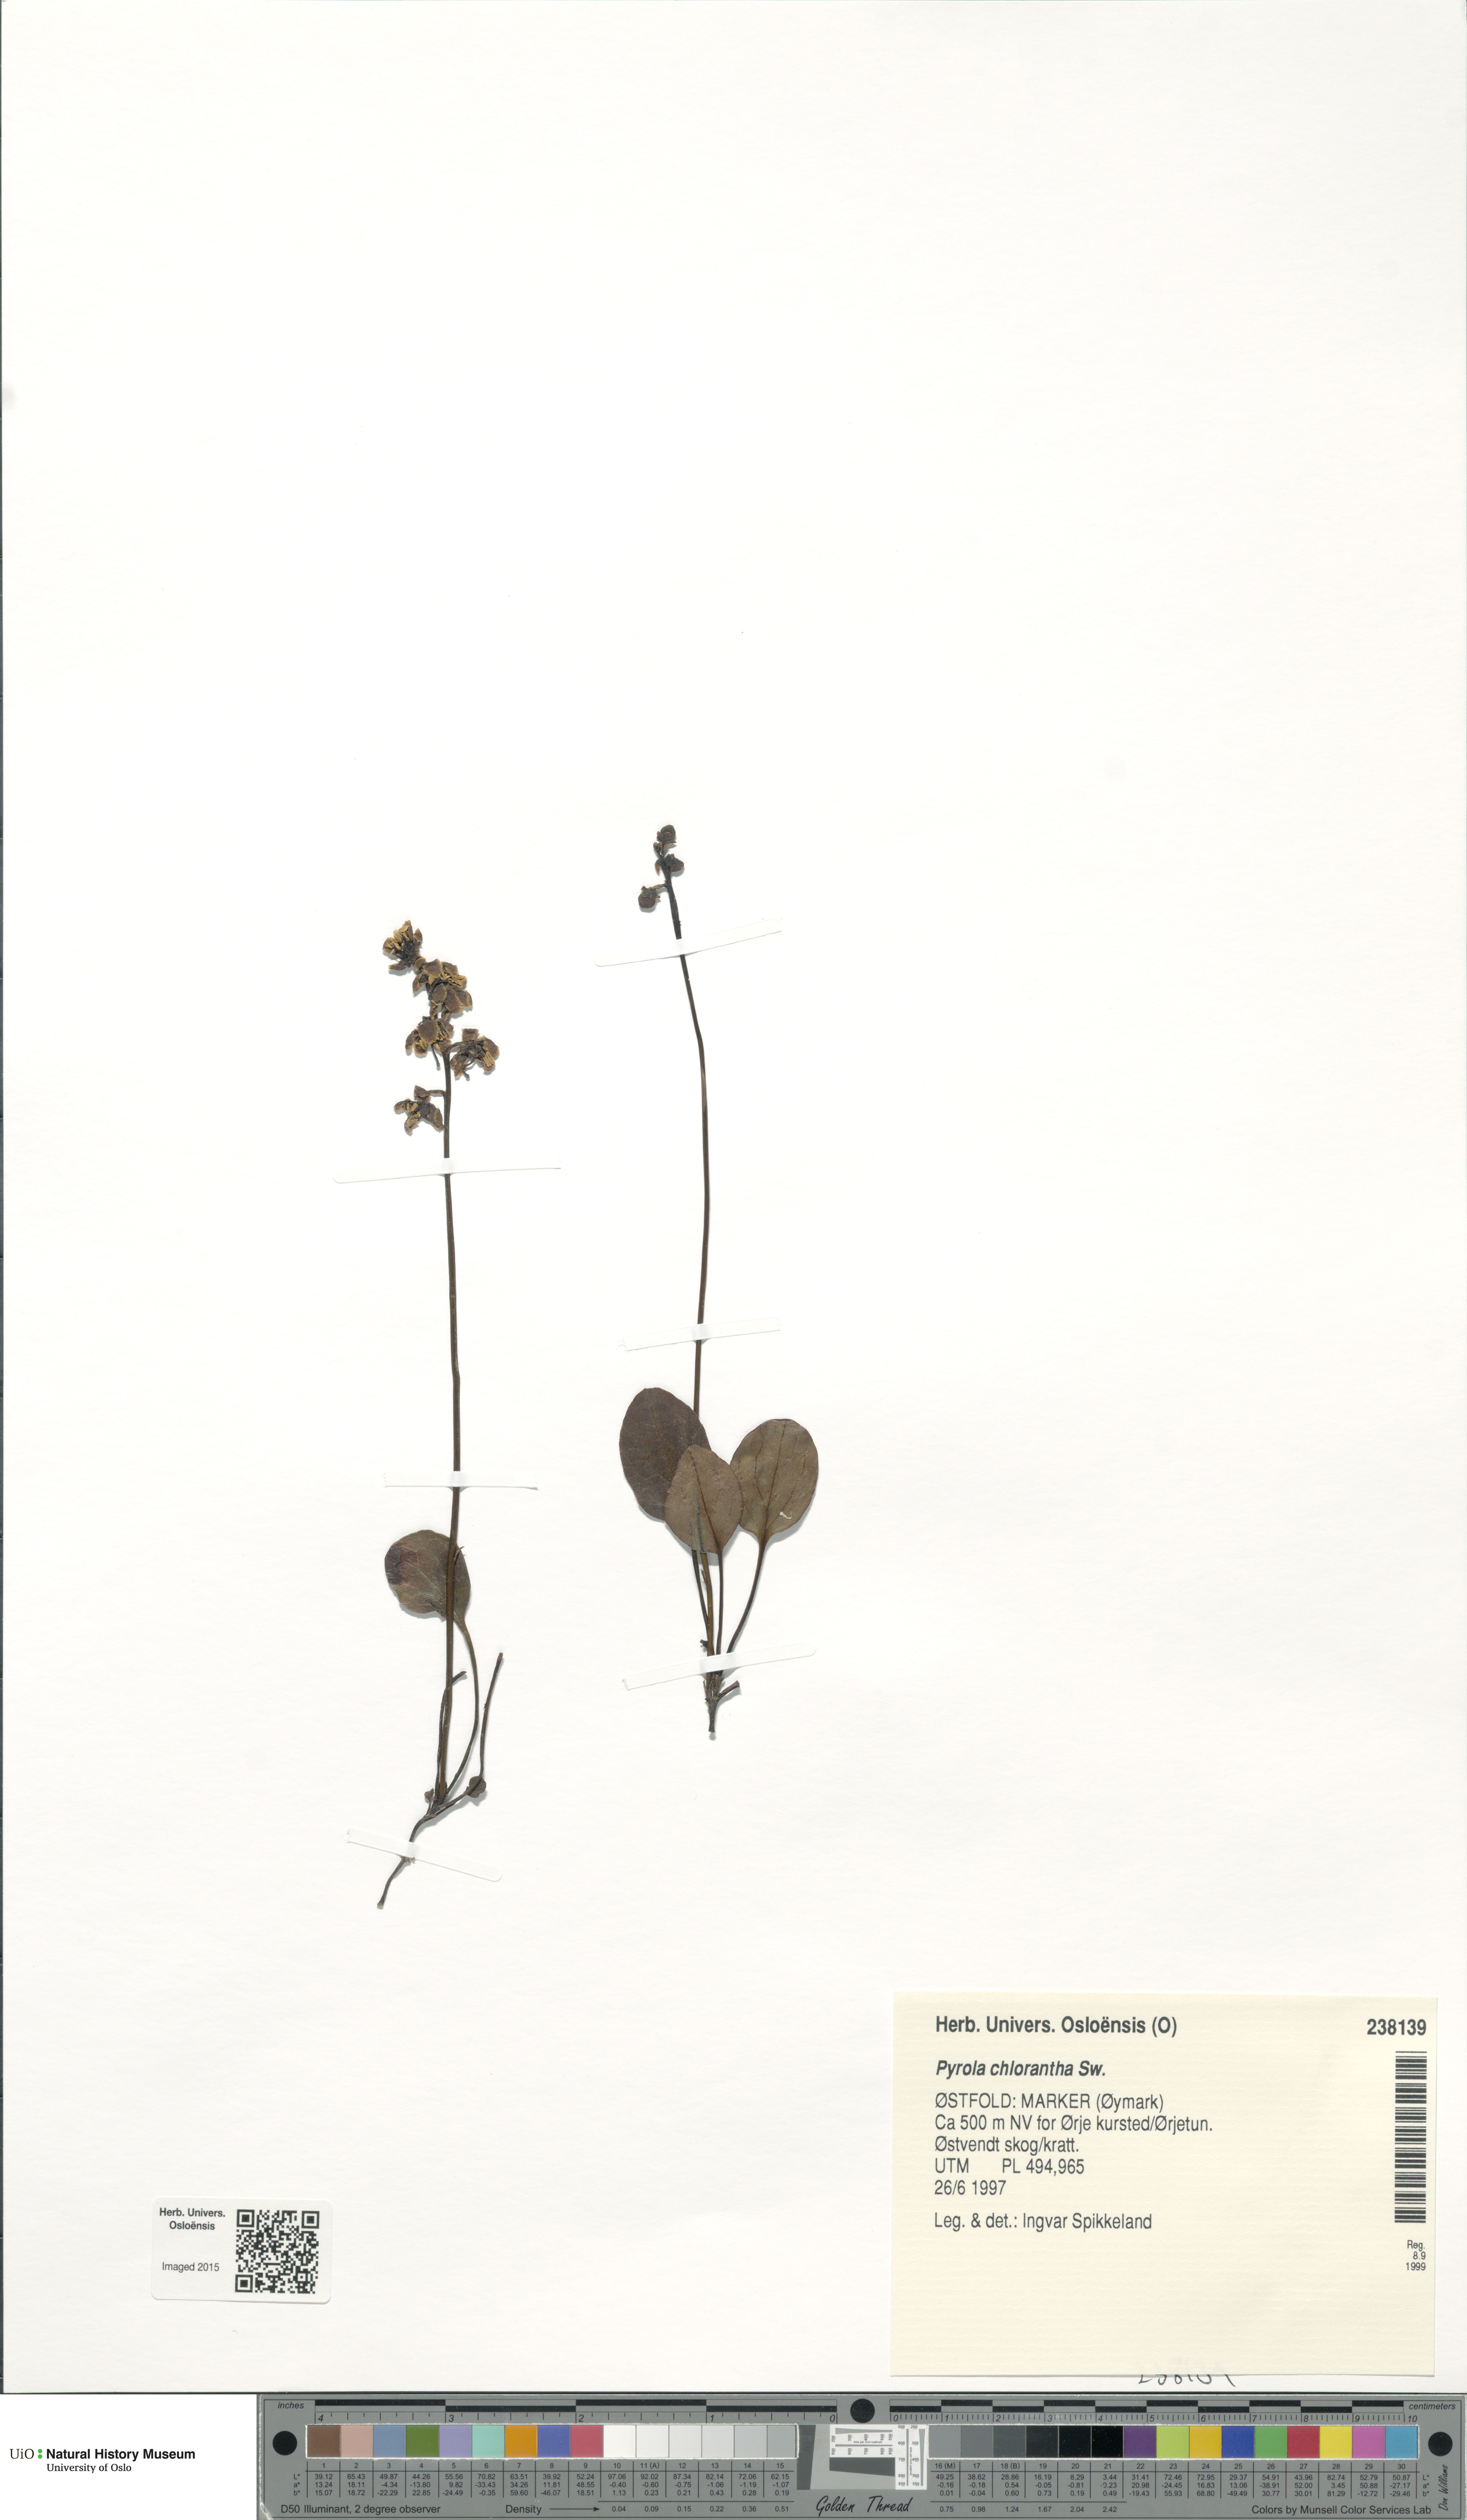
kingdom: Plantae
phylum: Tracheophyta
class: Magnoliopsida
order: Ericales
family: Ericaceae
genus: Pyrola
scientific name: Pyrola chlorantha
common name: Green wintergreen
